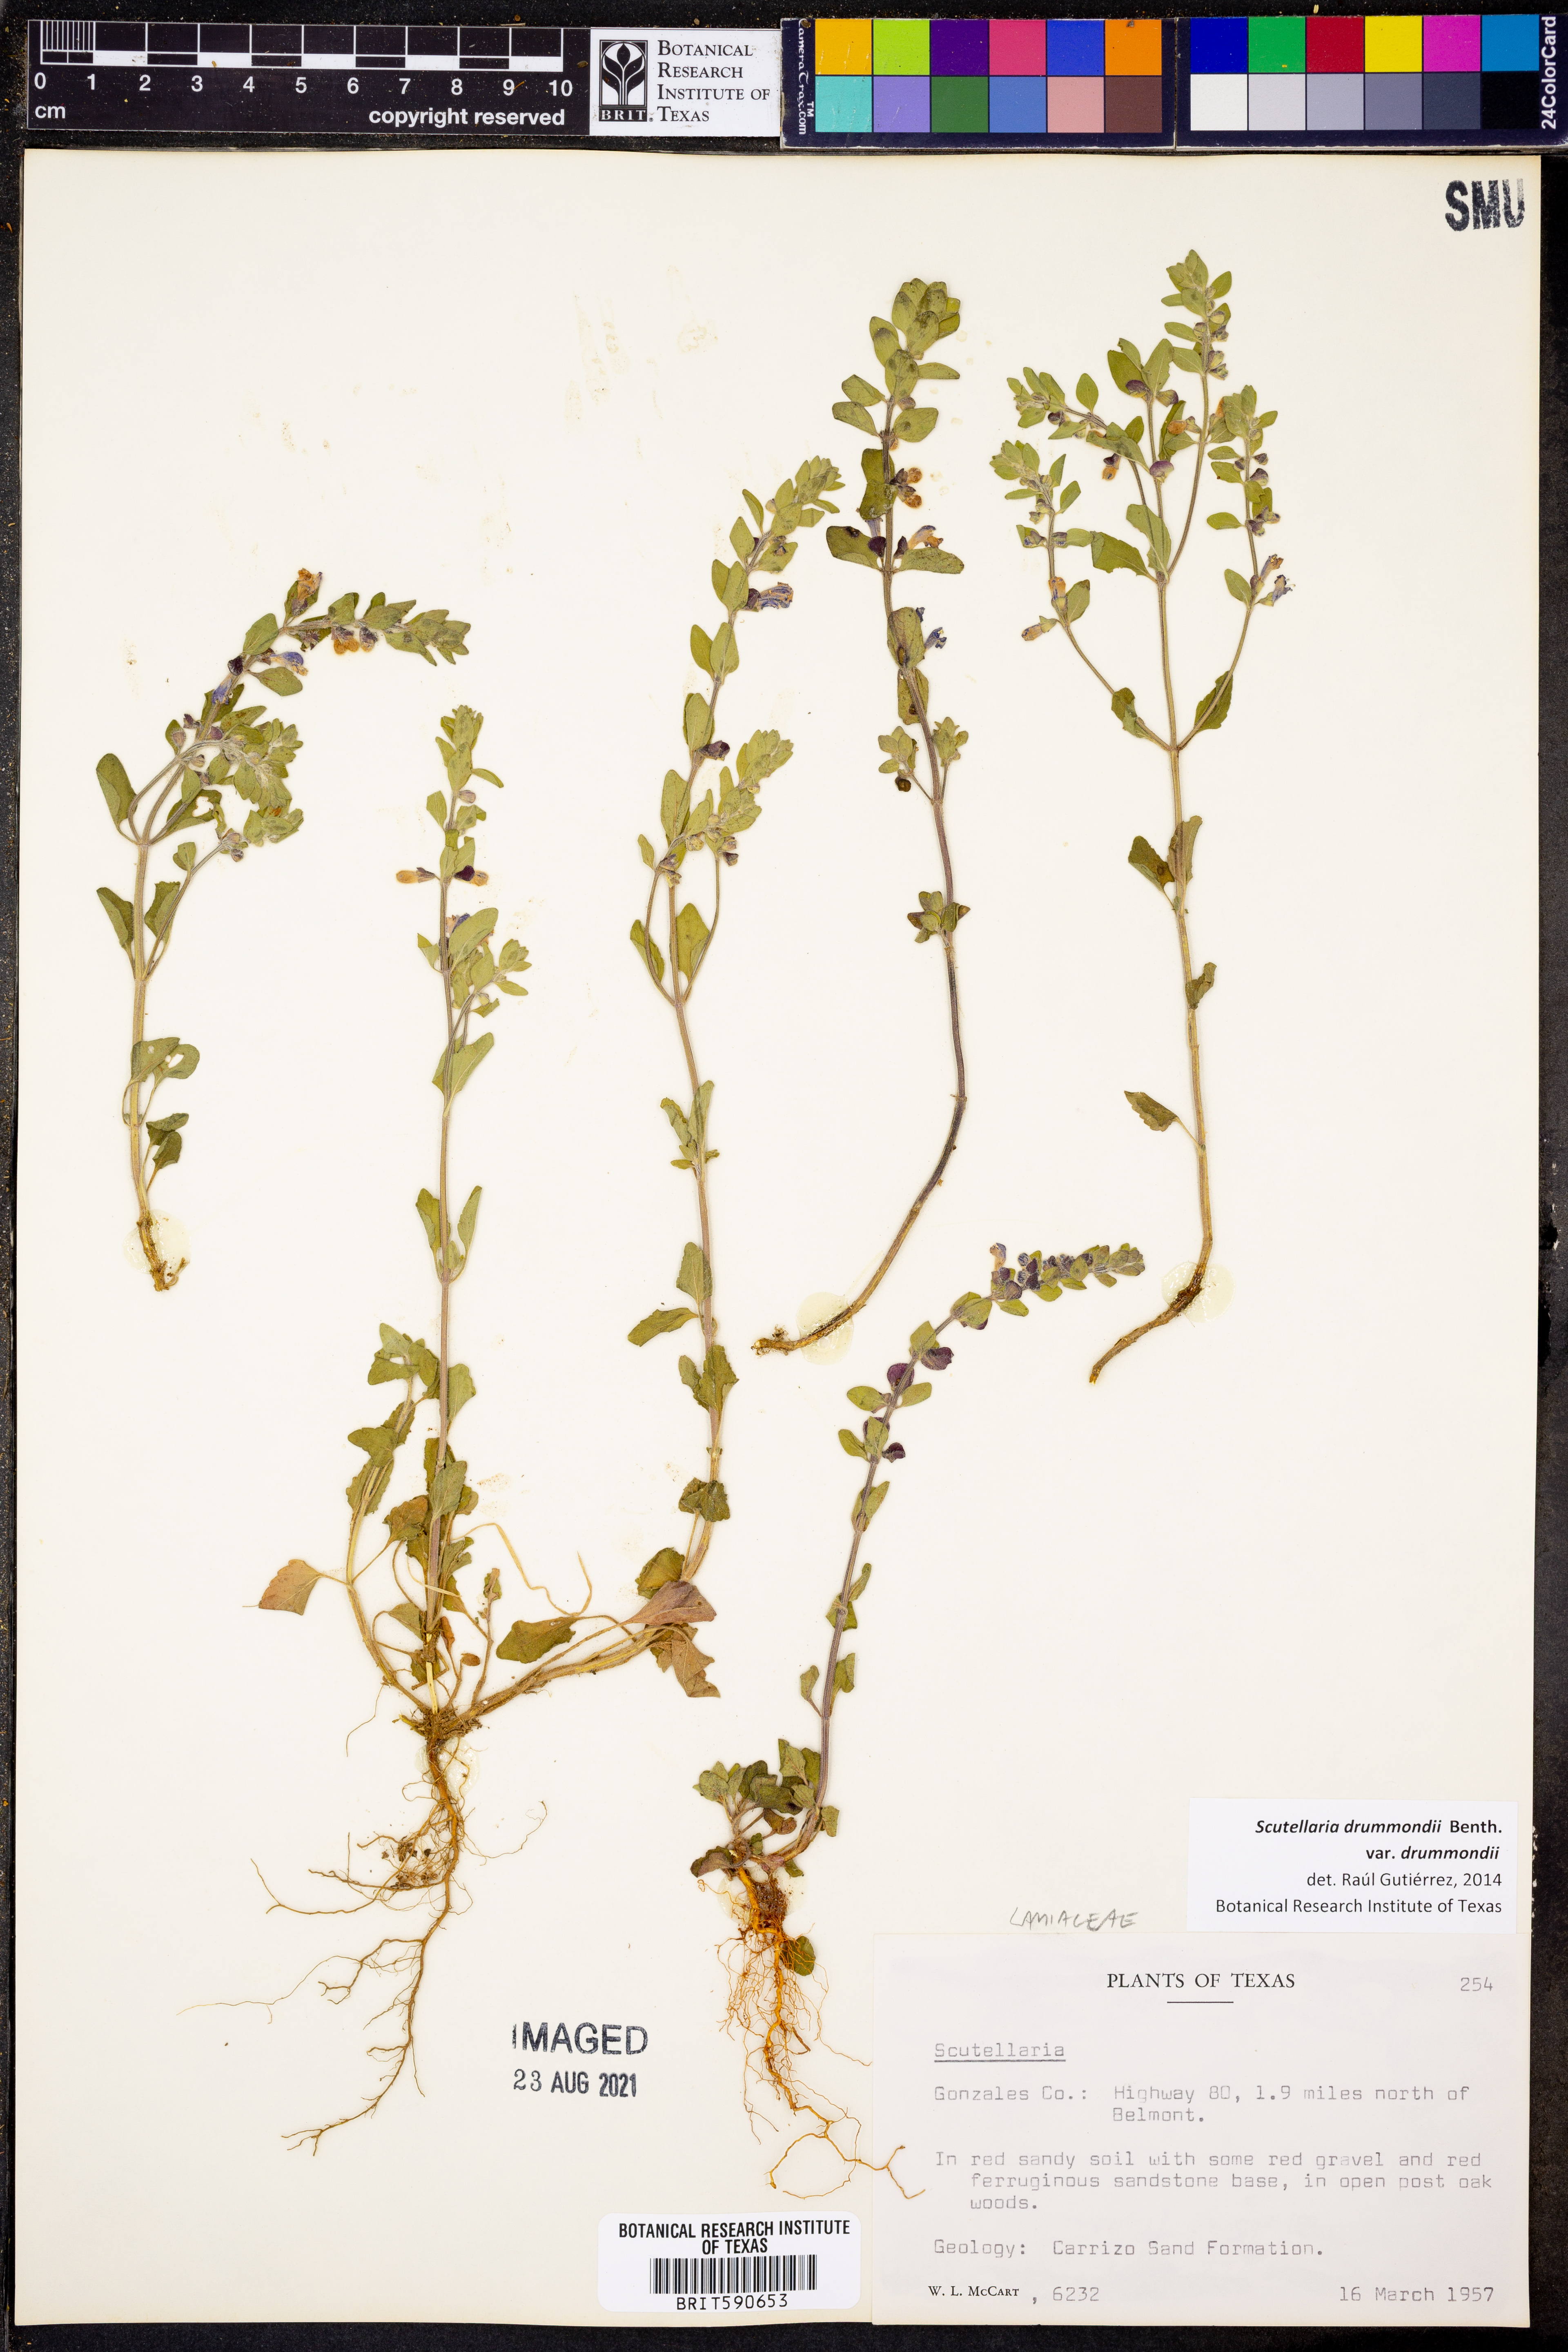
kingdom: Plantae
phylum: Tracheophyta
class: Magnoliopsida
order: Lamiales
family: Lamiaceae
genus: Scutellaria
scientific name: Scutellaria drummondii
